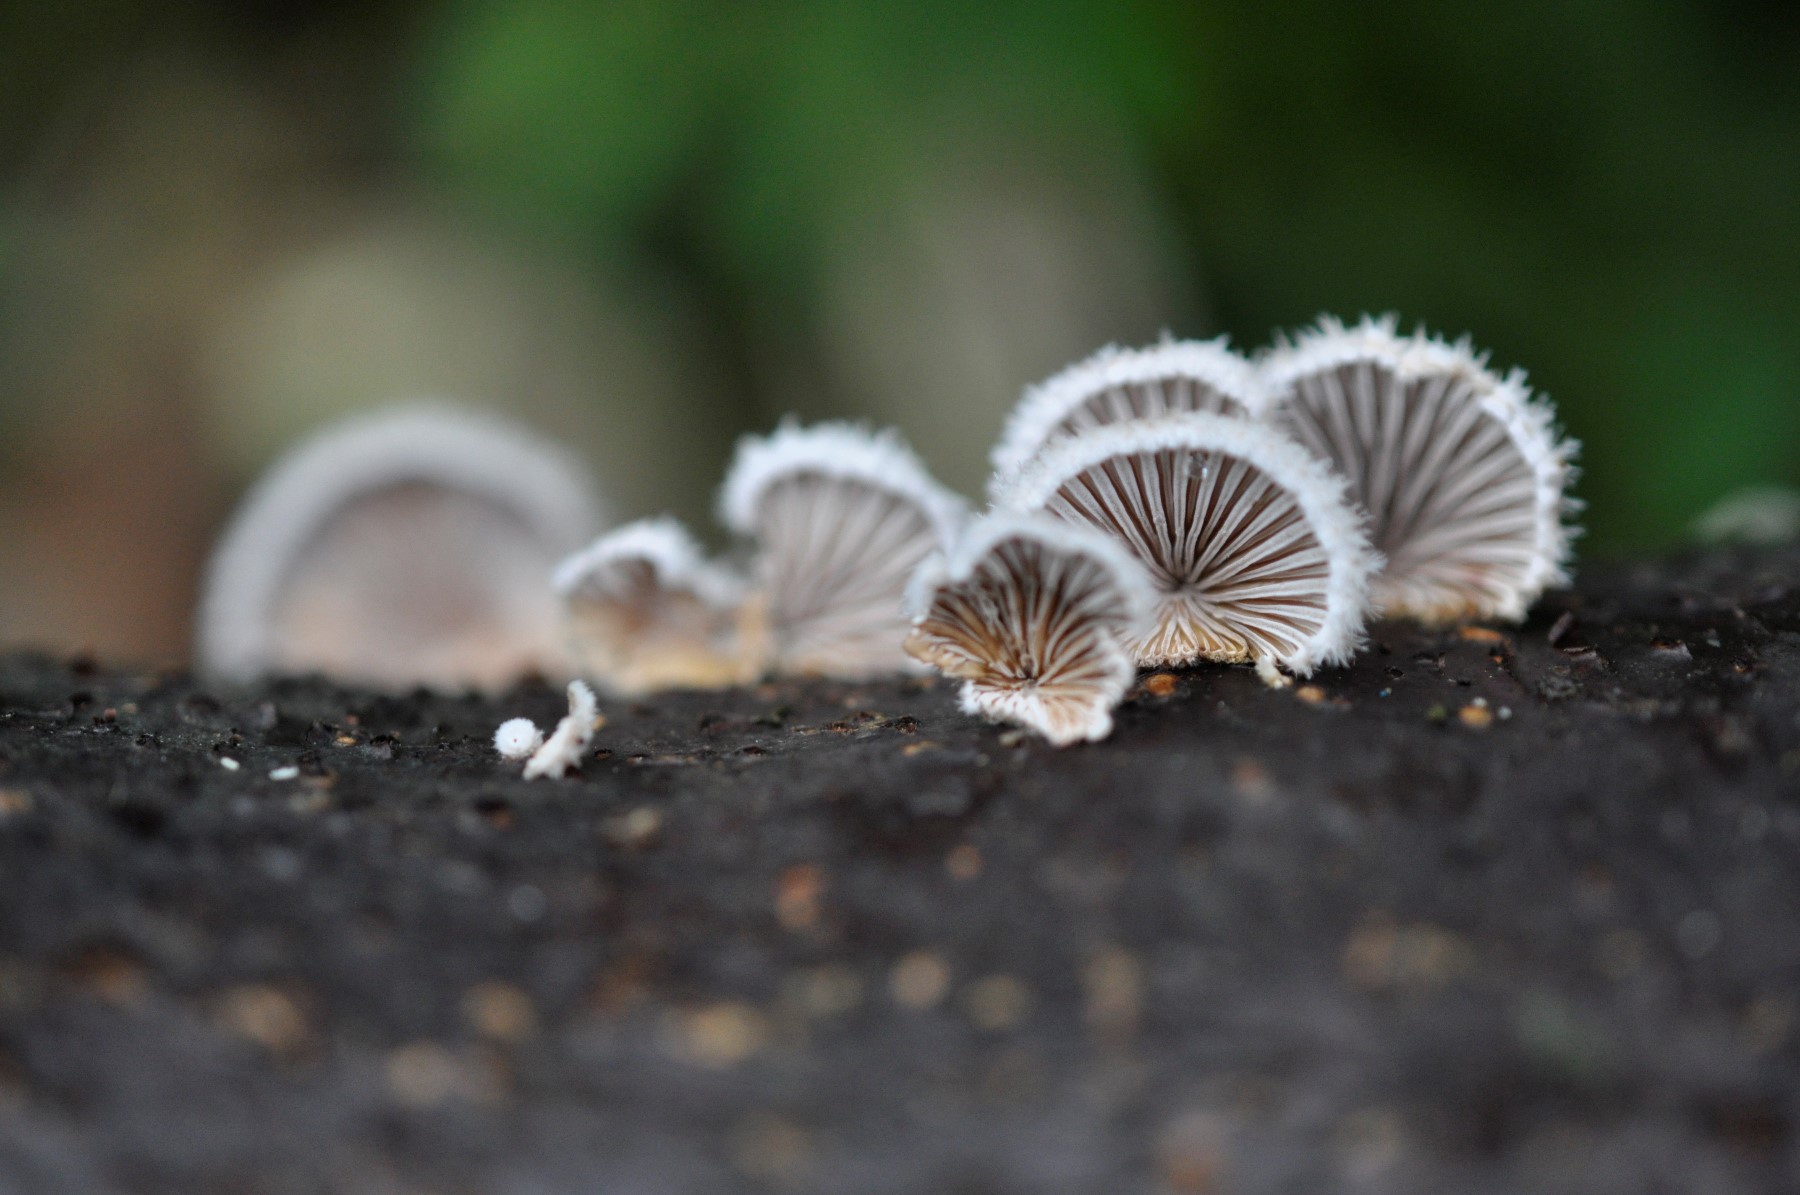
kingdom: Fungi
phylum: Basidiomycota
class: Agaricomycetes
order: Agaricales
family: Schizophyllaceae
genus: Schizophyllum
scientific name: Schizophyllum commune
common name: kløvblad
